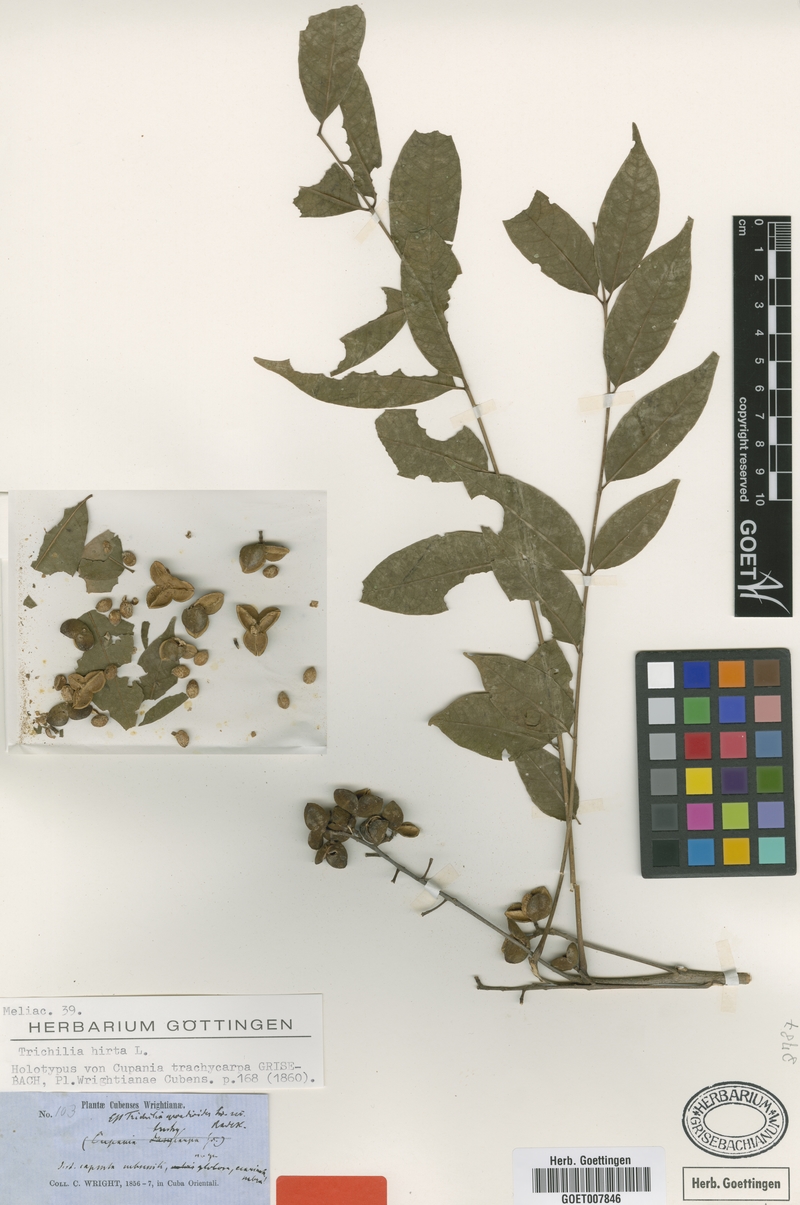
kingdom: Plantae
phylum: Tracheophyta
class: Magnoliopsida
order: Sapindales
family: Meliaceae
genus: Trichilia
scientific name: Trichilia hirta
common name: Red-cedar
